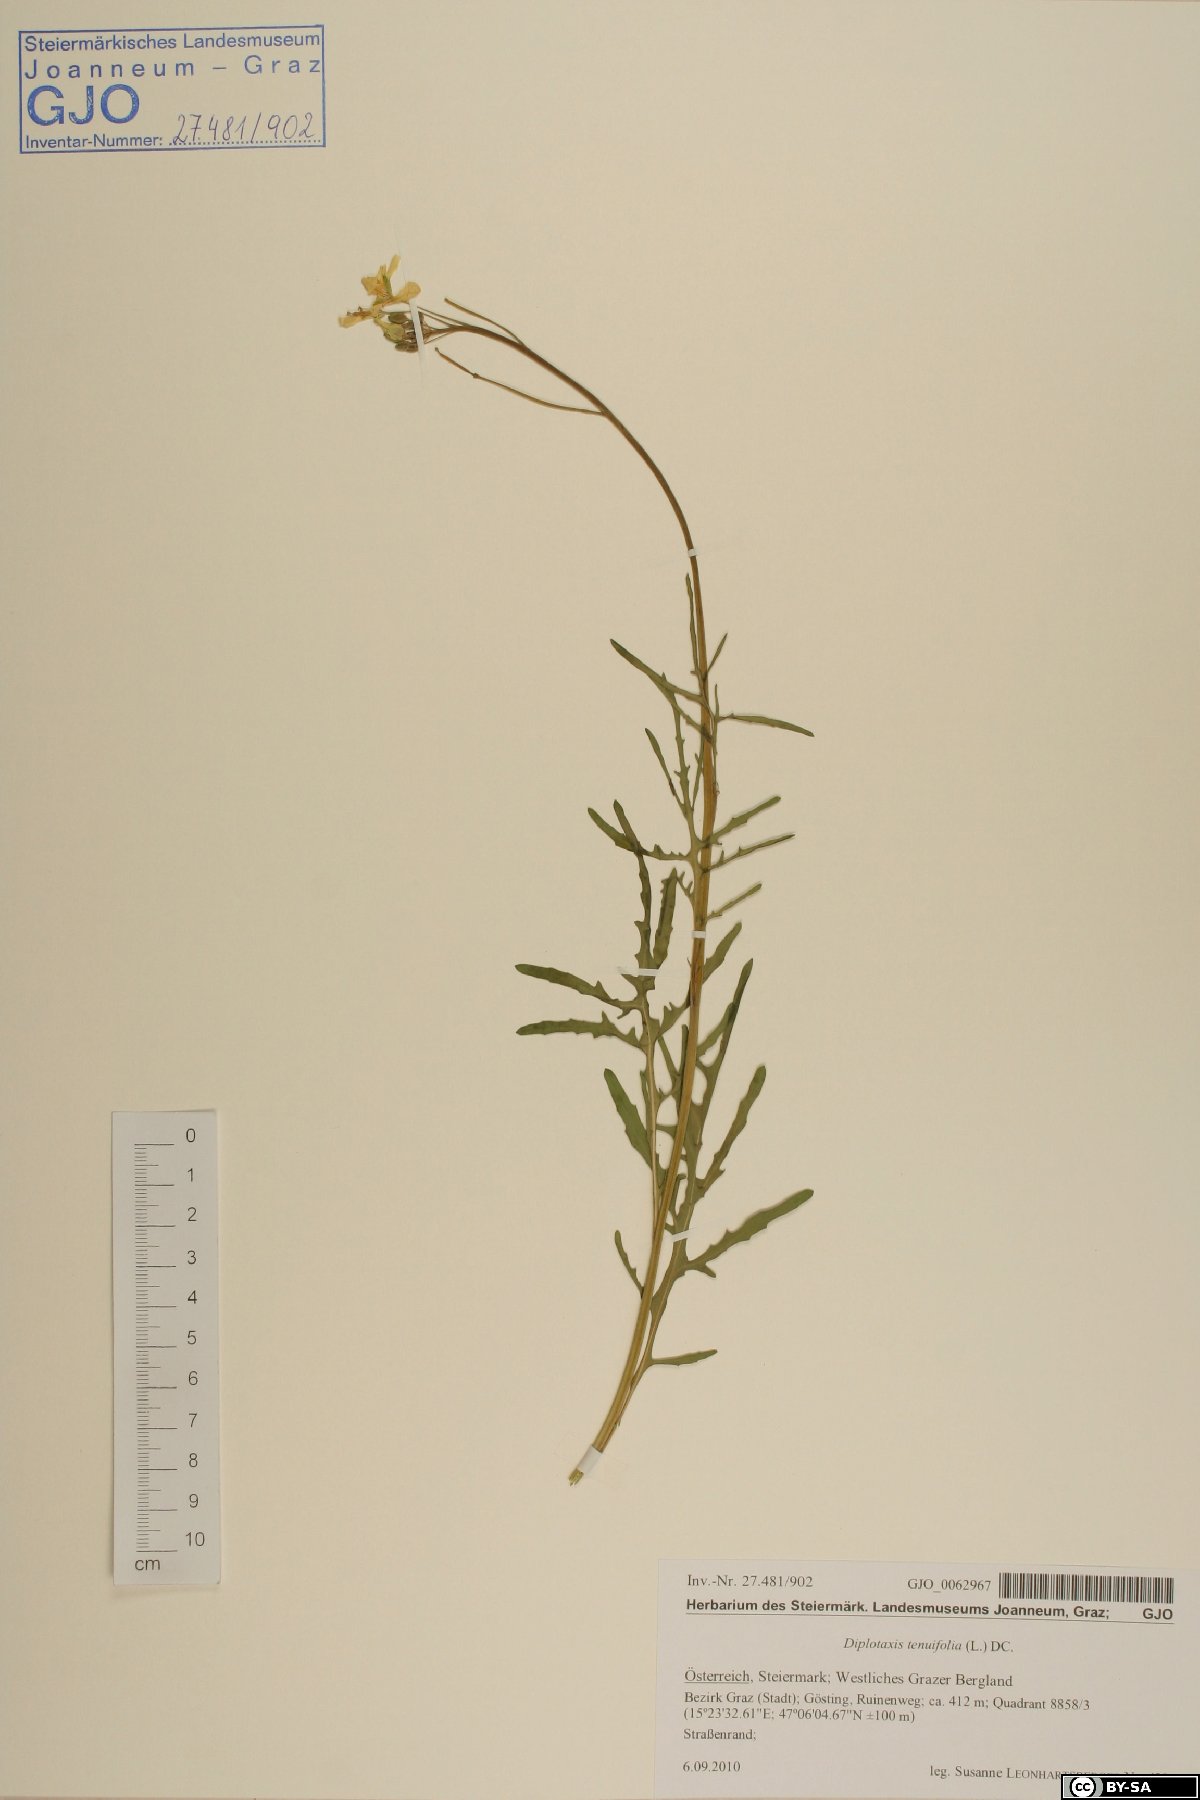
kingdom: Plantae
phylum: Tracheophyta
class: Magnoliopsida
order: Brassicales
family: Brassicaceae
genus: Diplotaxis
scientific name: Diplotaxis tenuifolia
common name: Perennial wall-rocket
